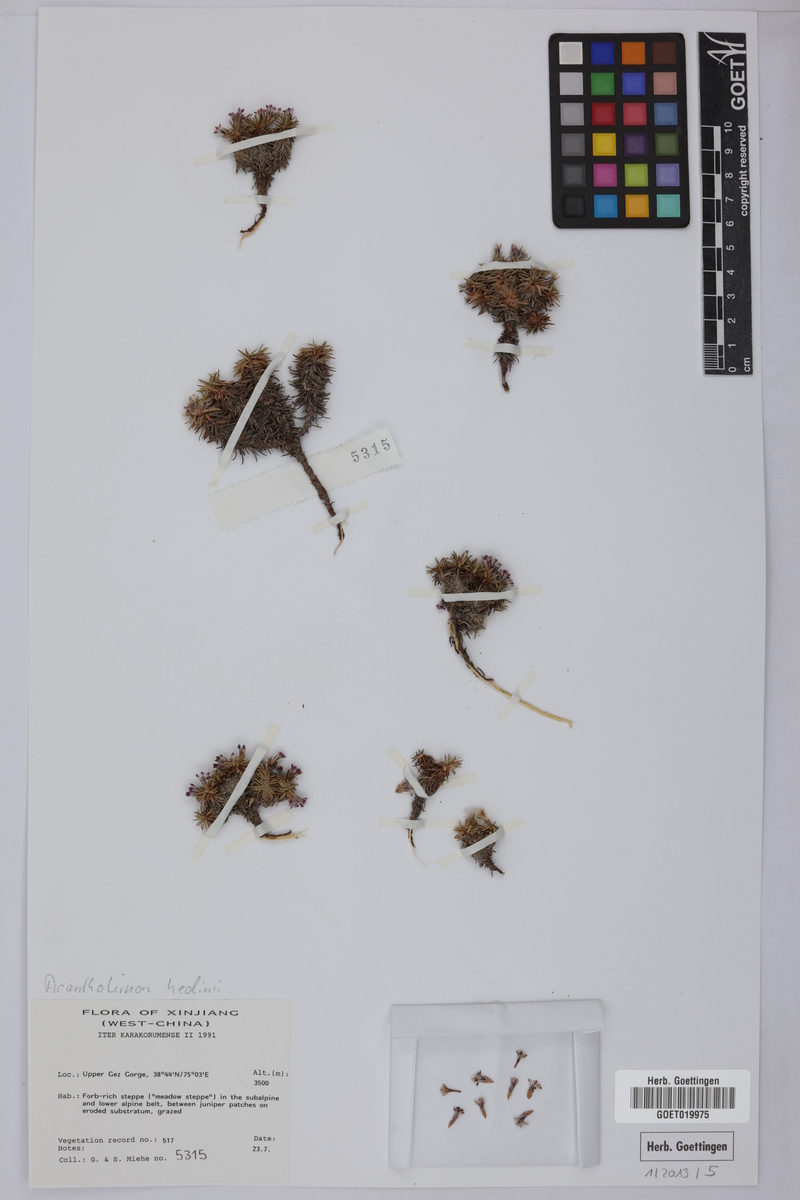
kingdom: Plantae
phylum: Tracheophyta
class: Magnoliopsida
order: Caryophyllales
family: Plumbaginaceae
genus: Acantholimon
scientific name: Acantholimon hedinii
